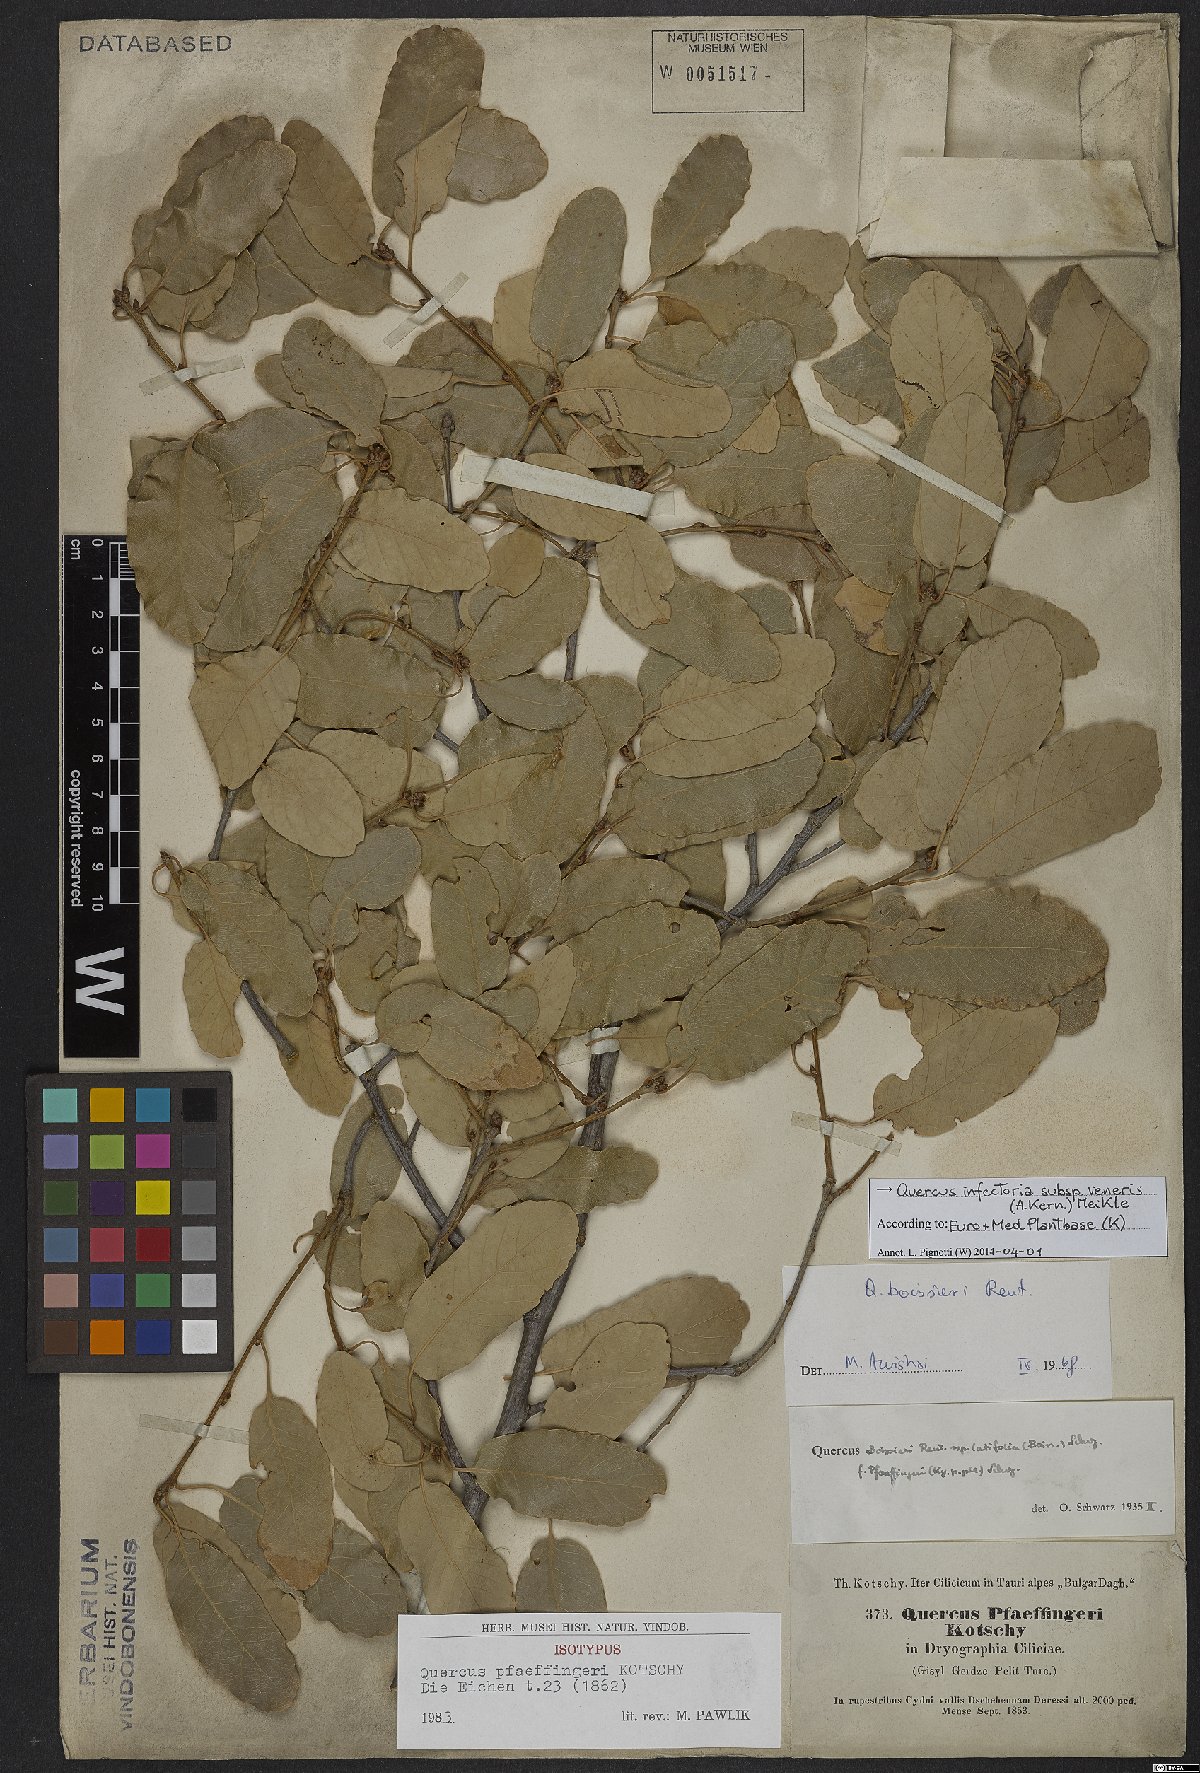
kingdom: Plantae
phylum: Tracheophyta
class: Magnoliopsida
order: Fagales
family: Fagaceae
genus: Quercus
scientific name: Quercus infectoria
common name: Aleppo oak
